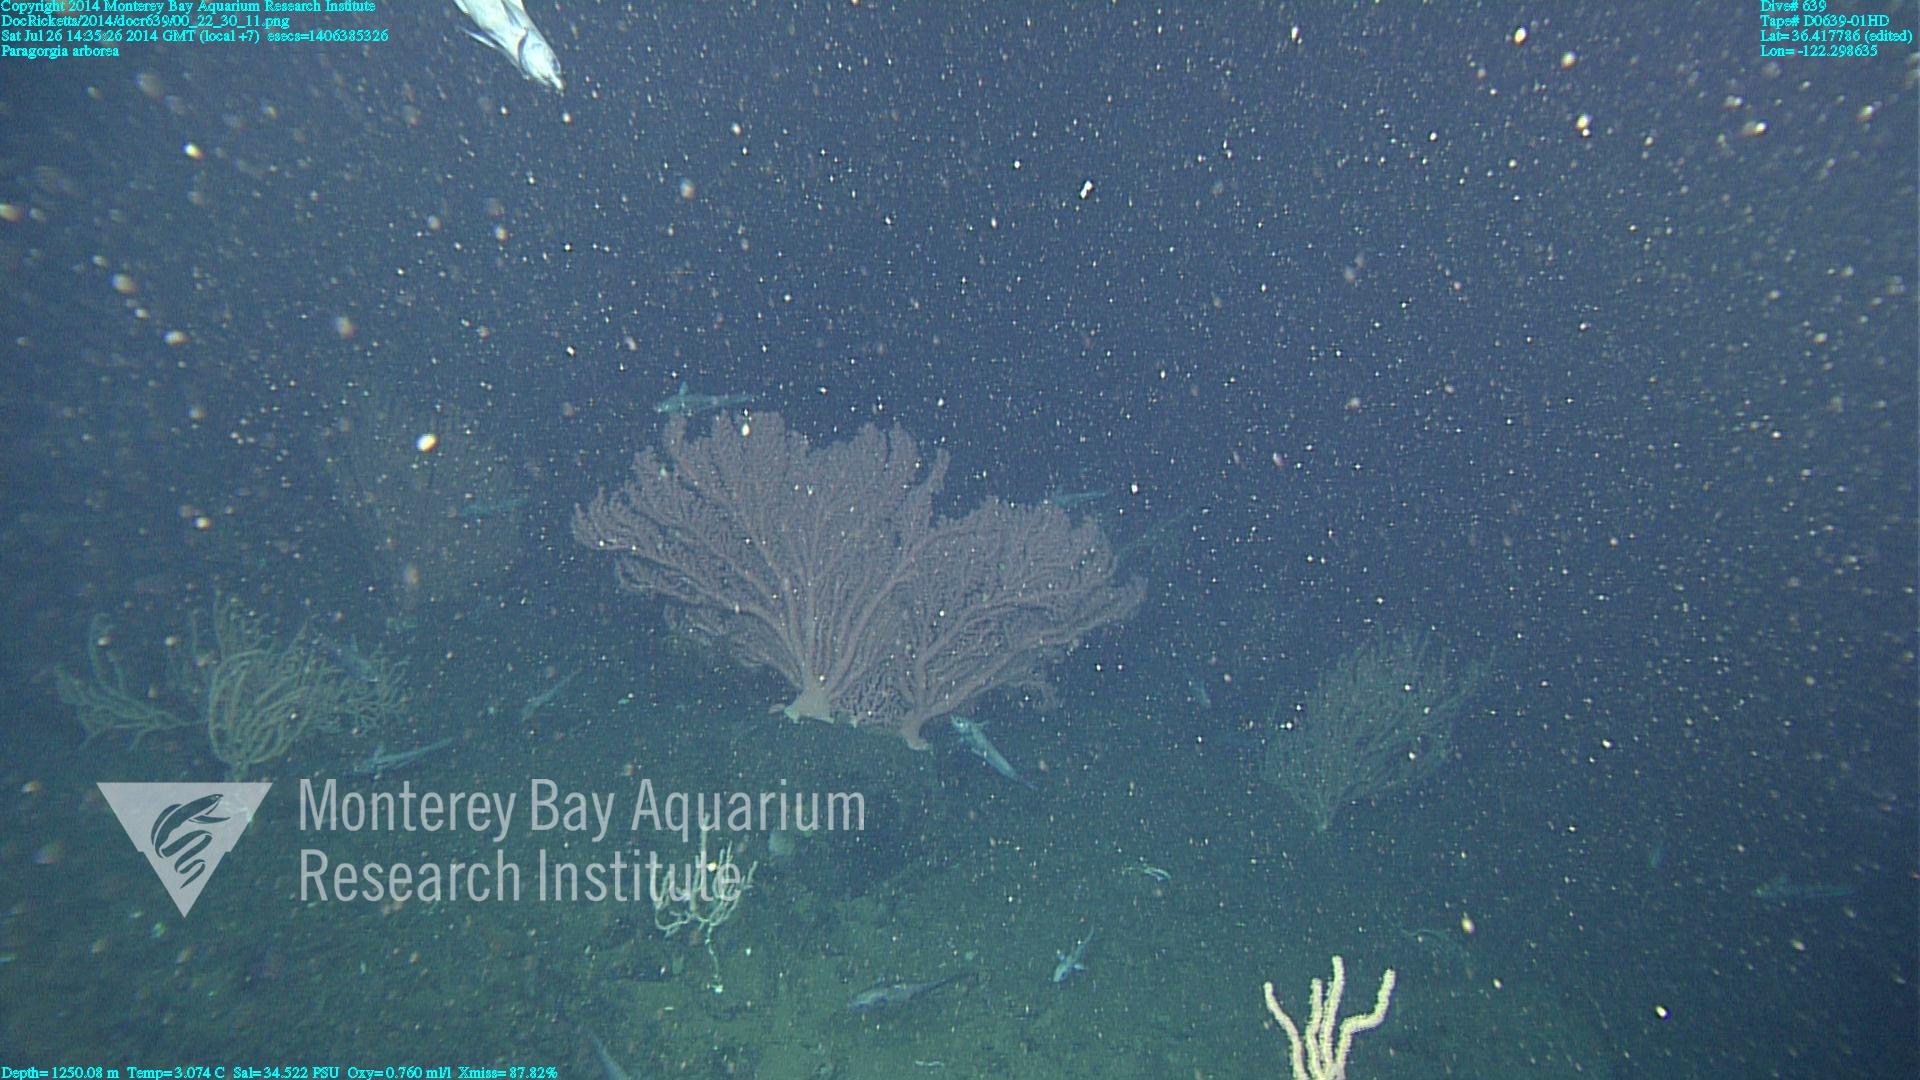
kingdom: Animalia
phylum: Cnidaria
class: Anthozoa
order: Scleralcyonacea
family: Coralliidae
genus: Paragorgia
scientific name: Paragorgia arborea
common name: Bubble gum coral
